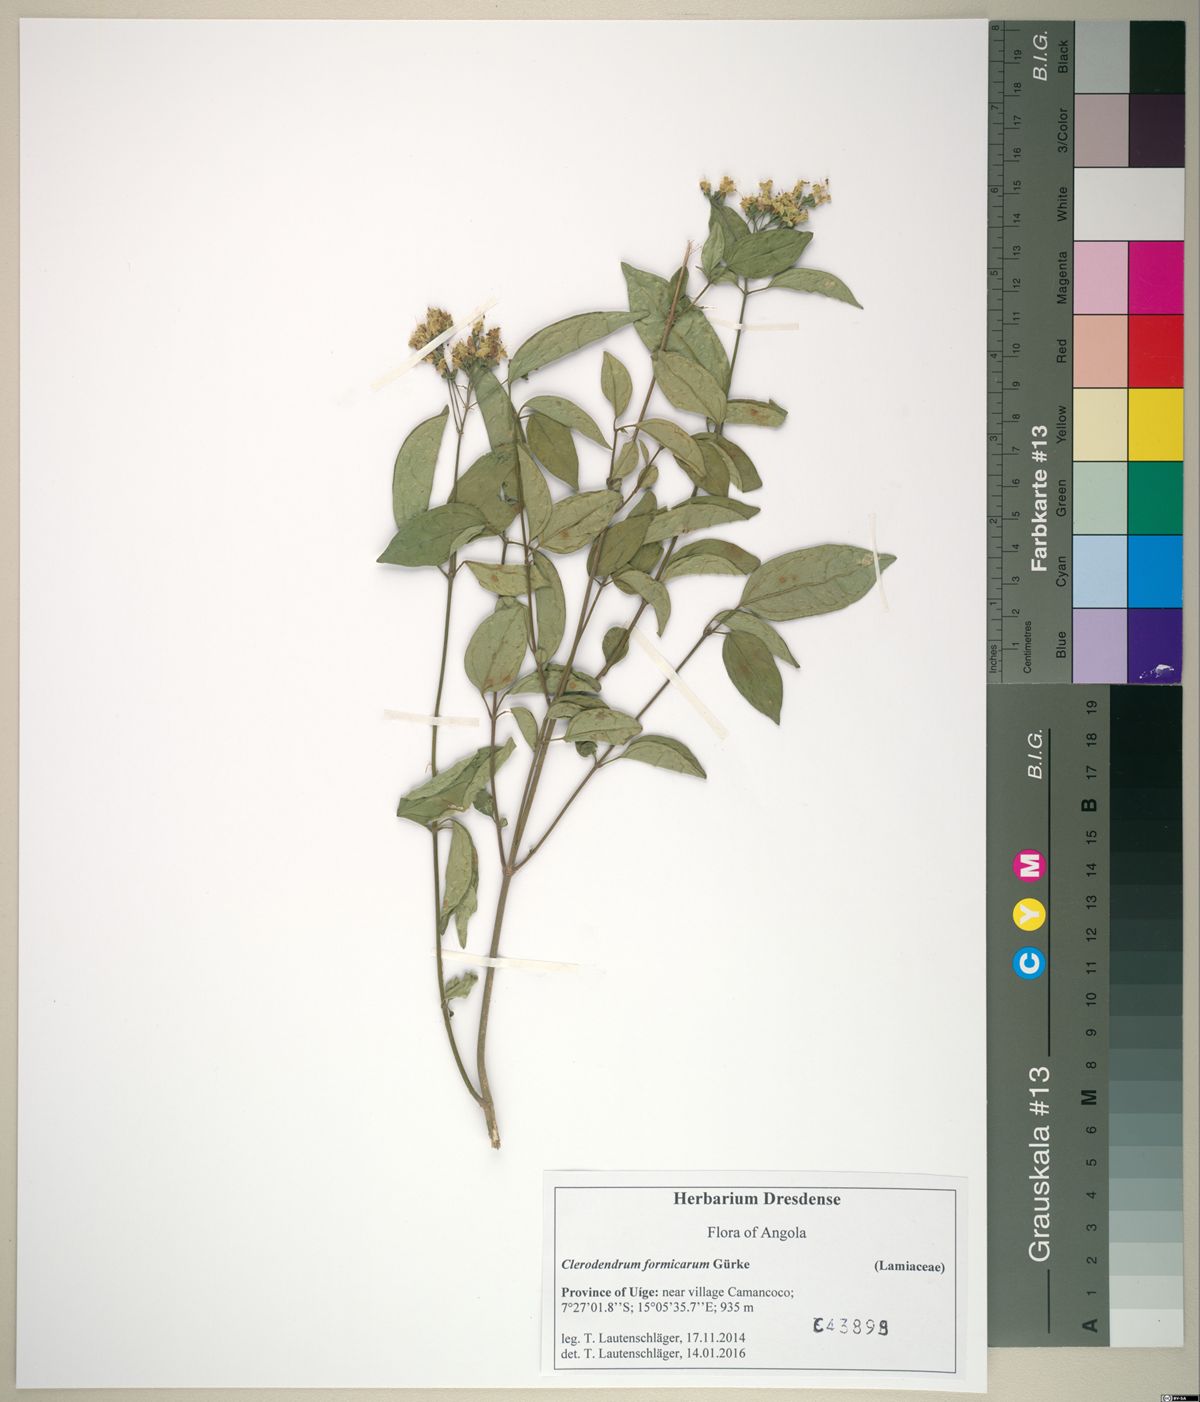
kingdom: Plantae
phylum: Tracheophyta
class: Magnoliopsida
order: Lamiales
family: Lamiaceae
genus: Clerodendrum
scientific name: Clerodendrum formicarum
